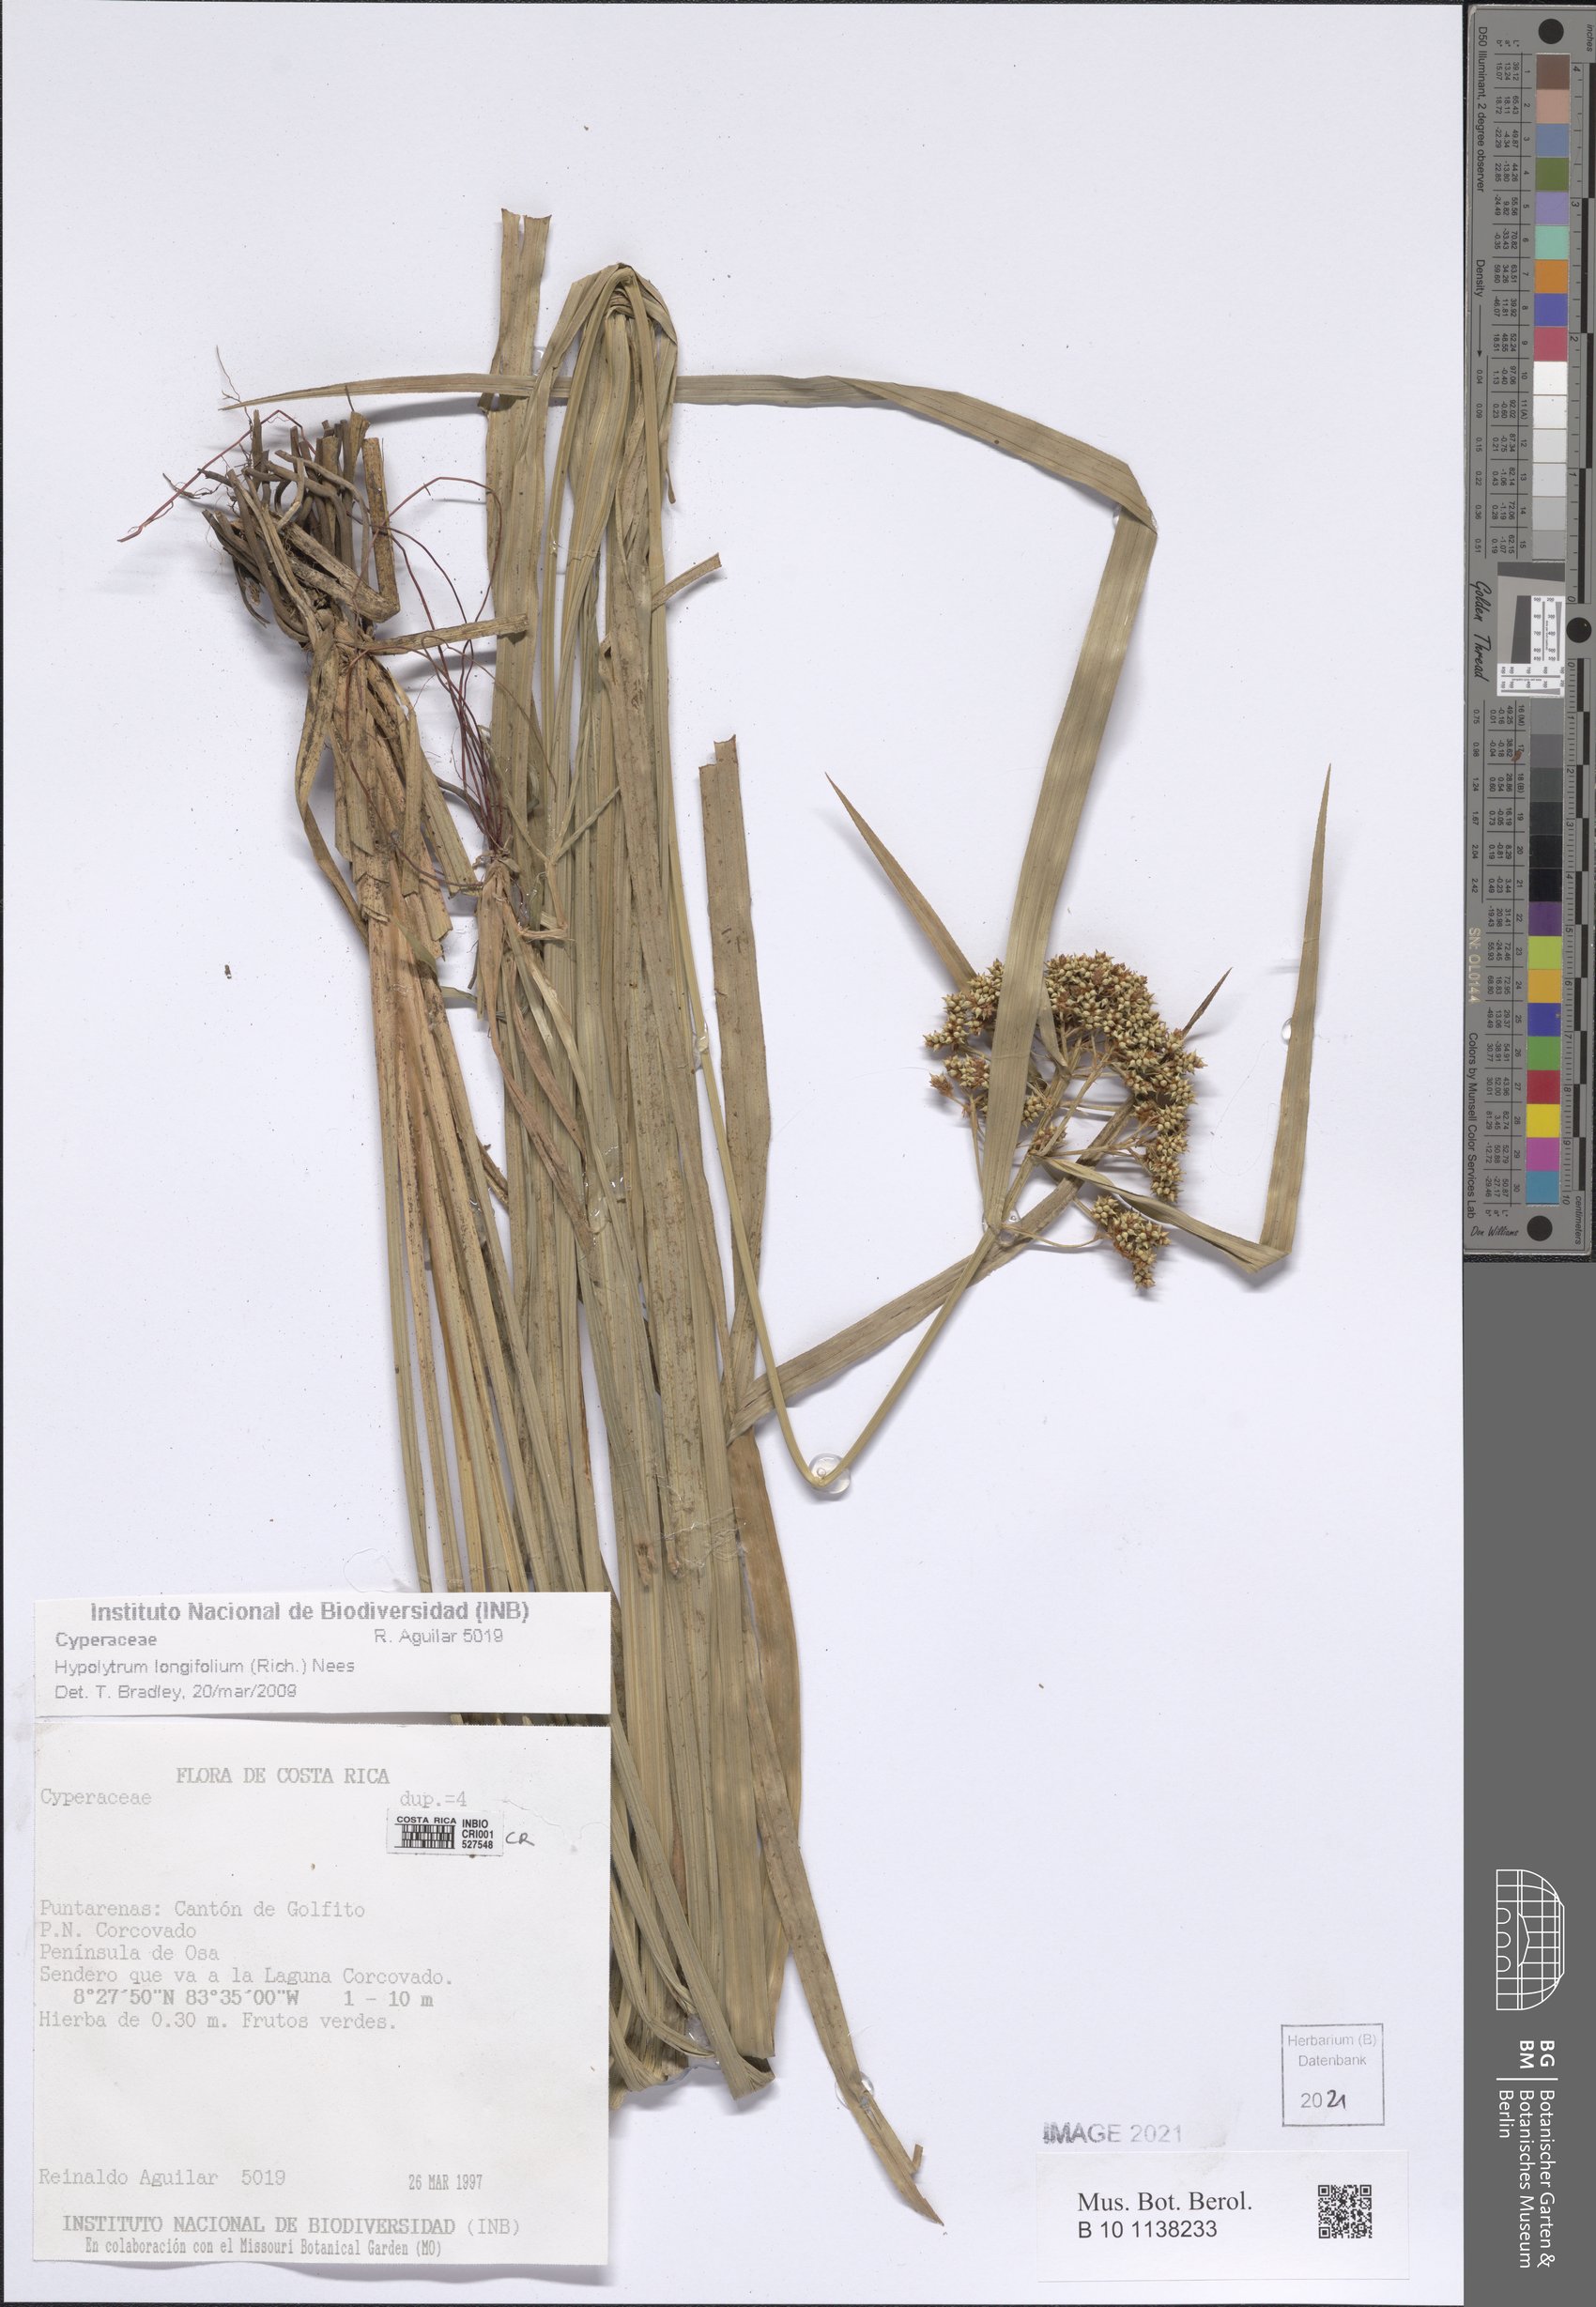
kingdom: Plantae
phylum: Tracheophyta
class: Liliopsida
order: Poales
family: Cyperaceae
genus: Hypolytrum
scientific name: Hypolytrum longifolium
